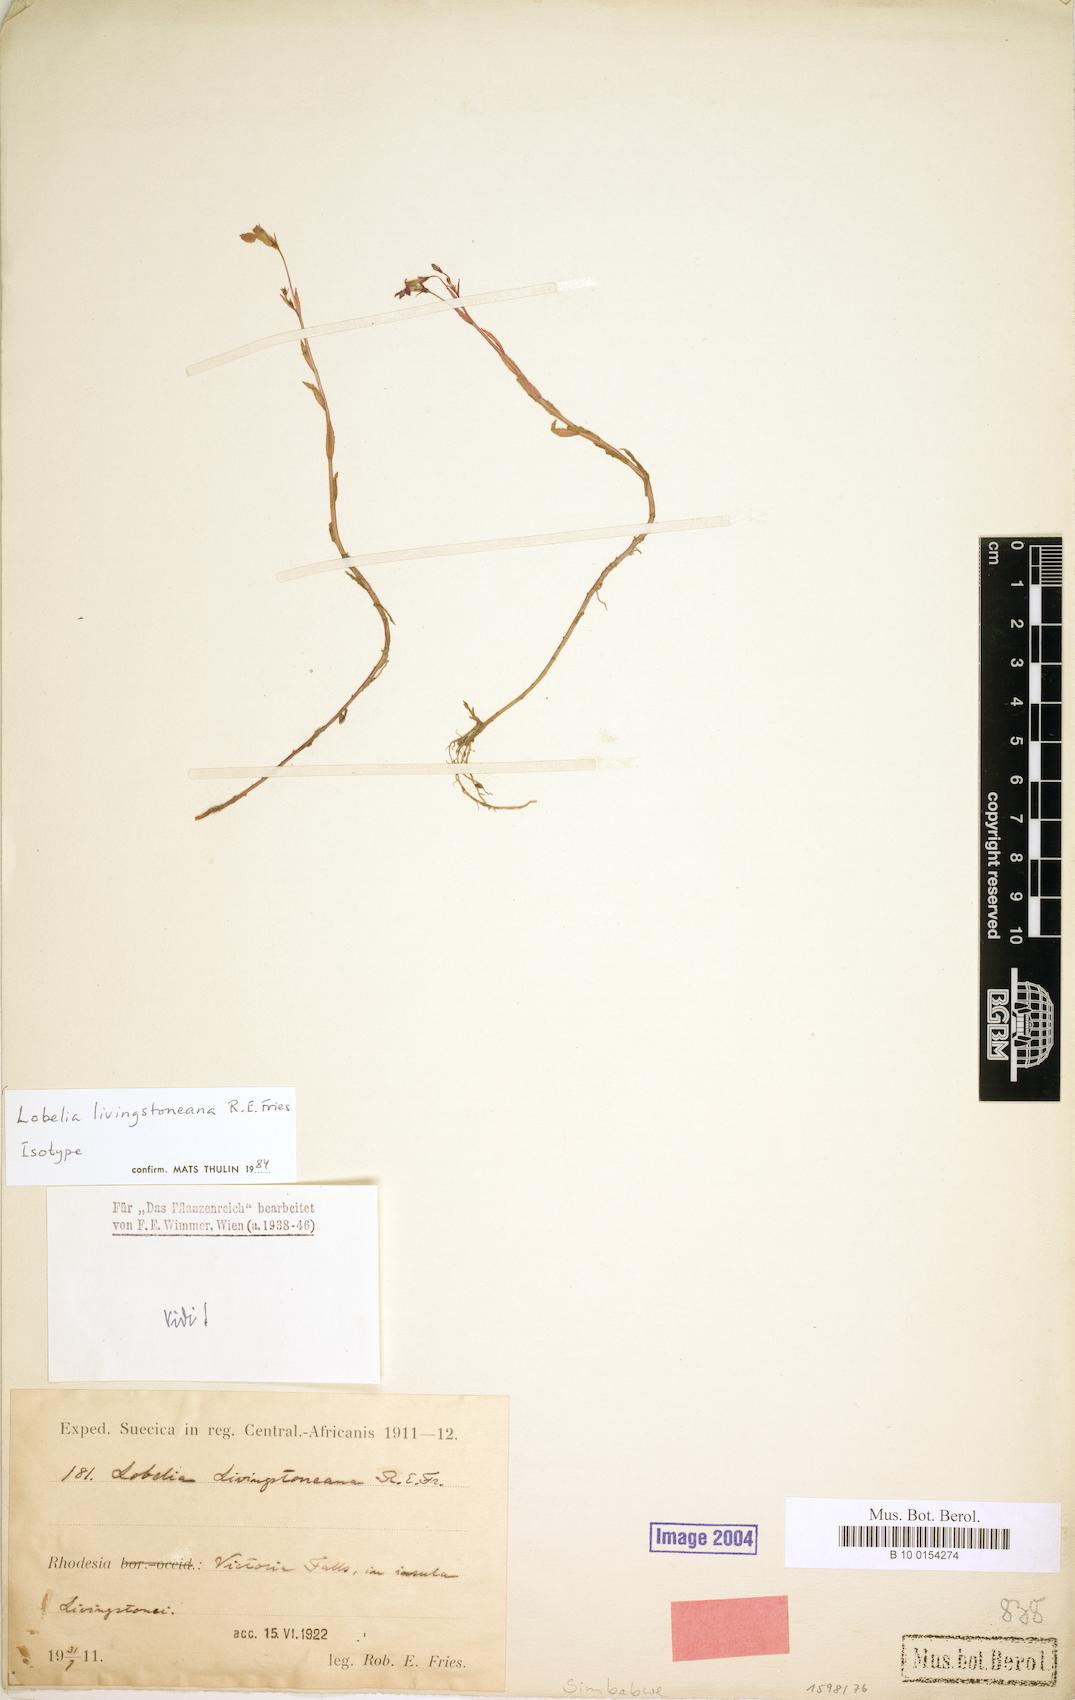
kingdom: Plantae
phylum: Tracheophyta
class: Magnoliopsida
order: Asterales
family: Campanulaceae
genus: Lobelia
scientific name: Lobelia livingstoniana
